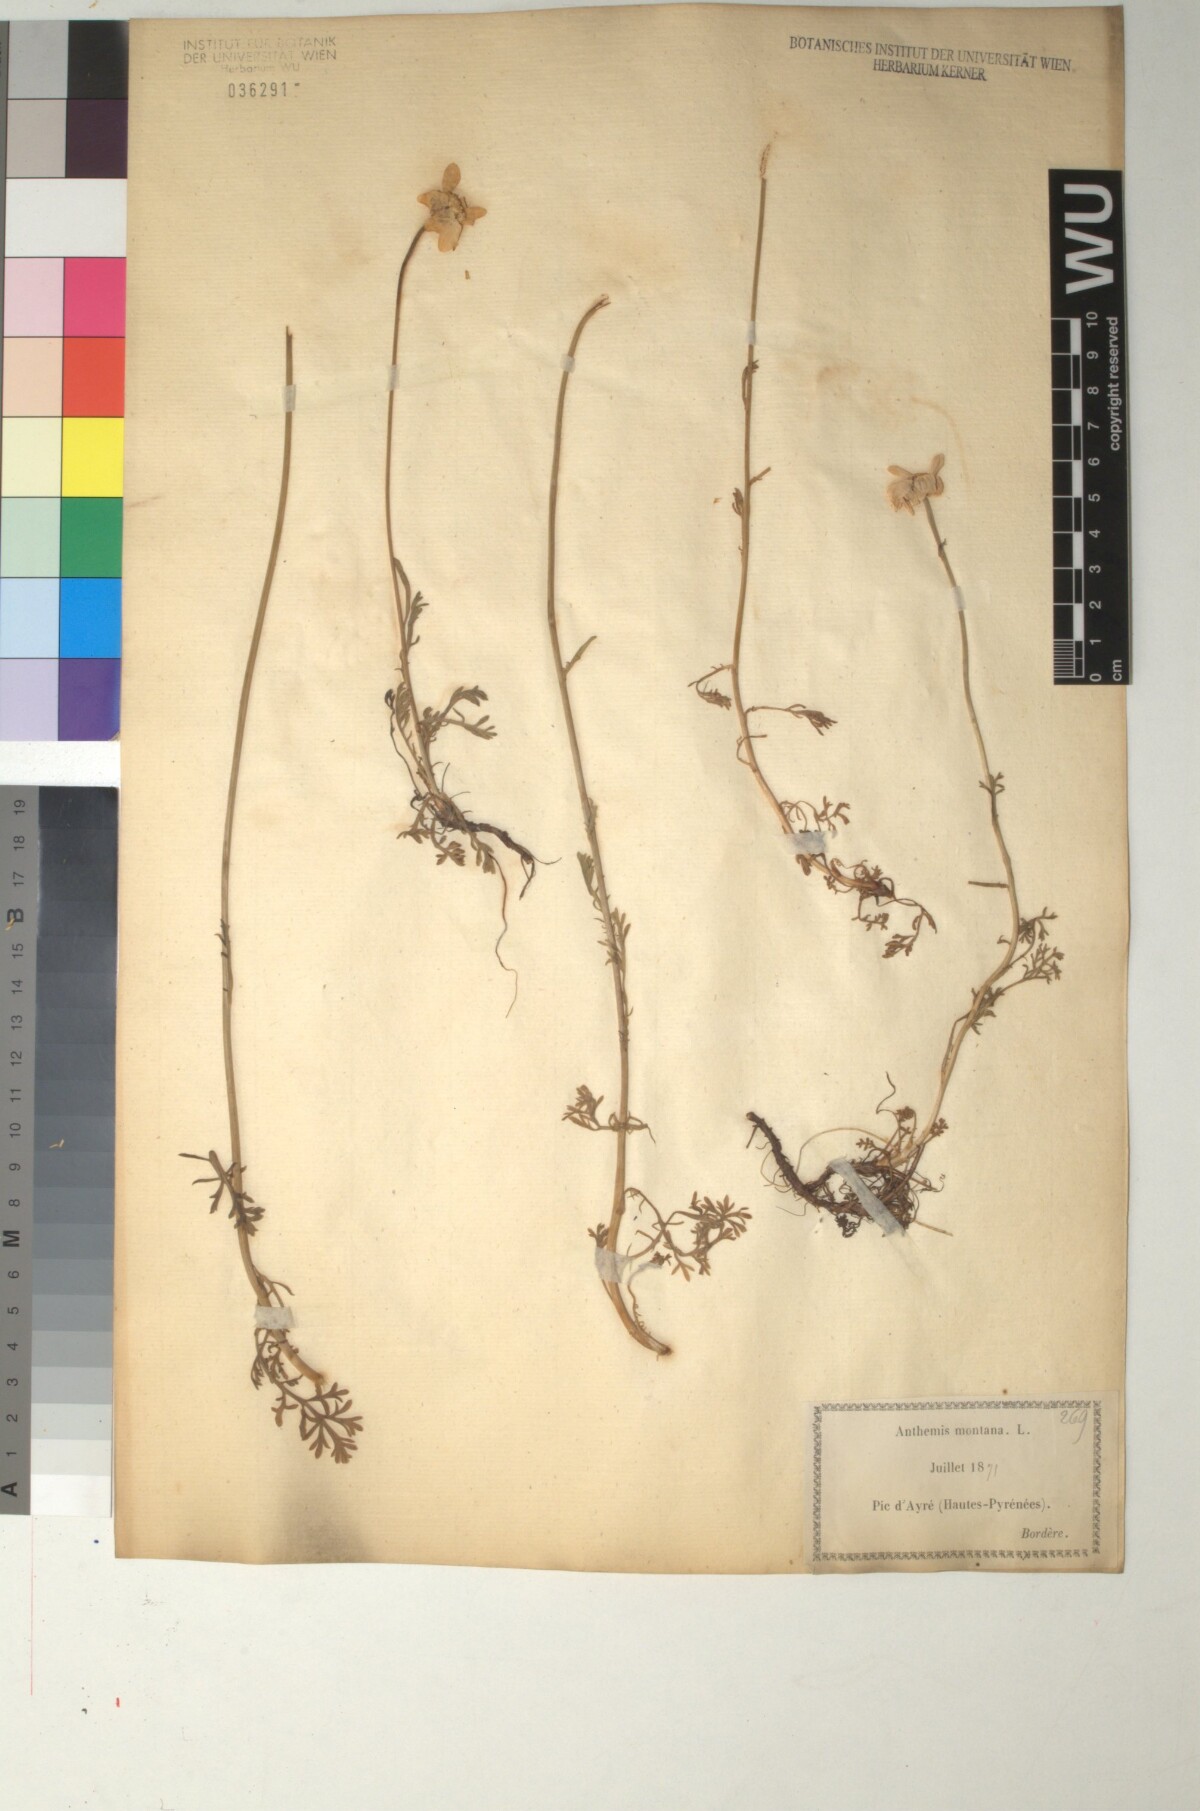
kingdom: Plantae
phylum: Tracheophyta
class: Magnoliopsida
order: Asterales
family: Asteraceae
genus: Anthemis
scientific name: Anthemis cretica
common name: Mountain dog-daisy
